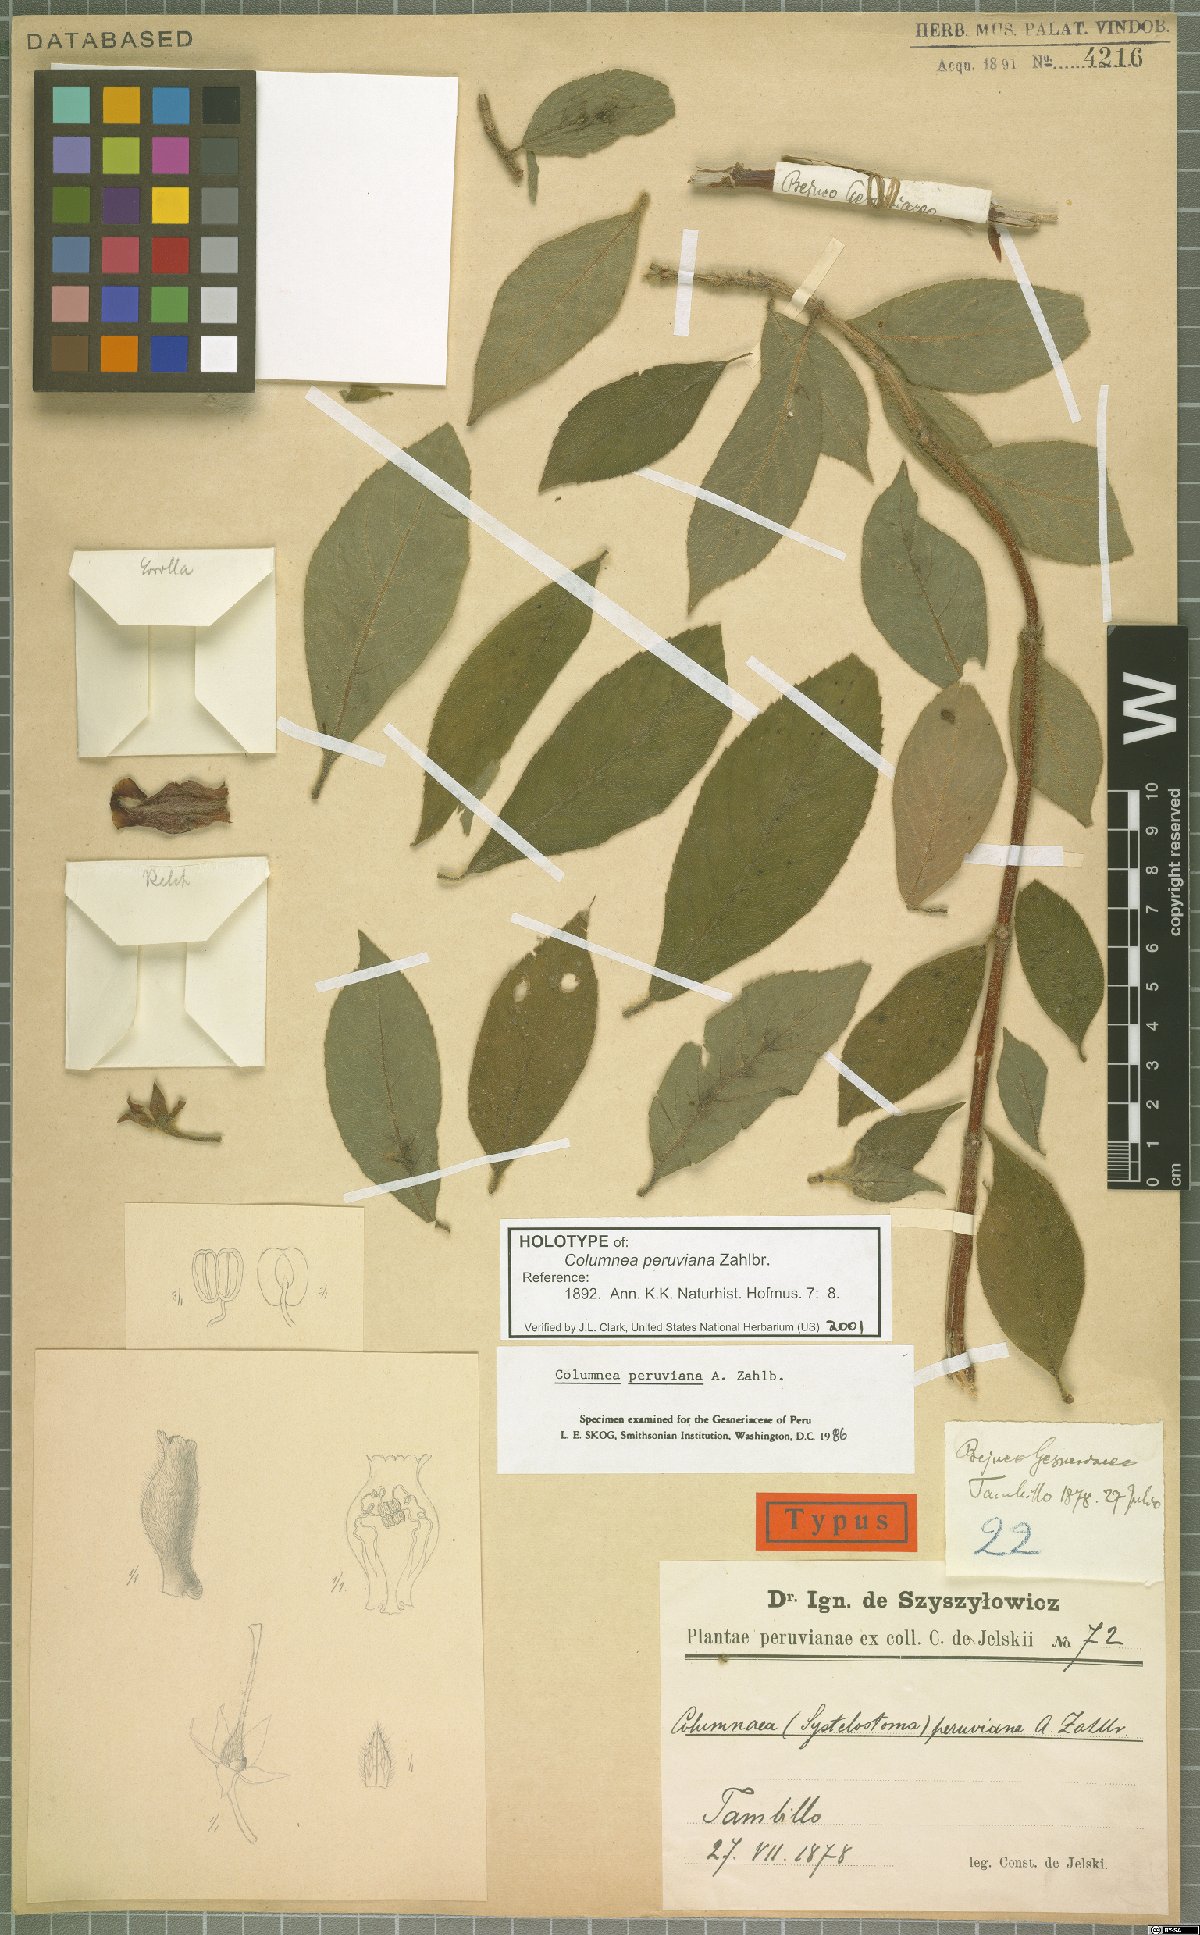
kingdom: Plantae
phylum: Tracheophyta
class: Magnoliopsida
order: Lamiales
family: Gesneriaceae
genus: Columnea
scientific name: Columnea peruviana
